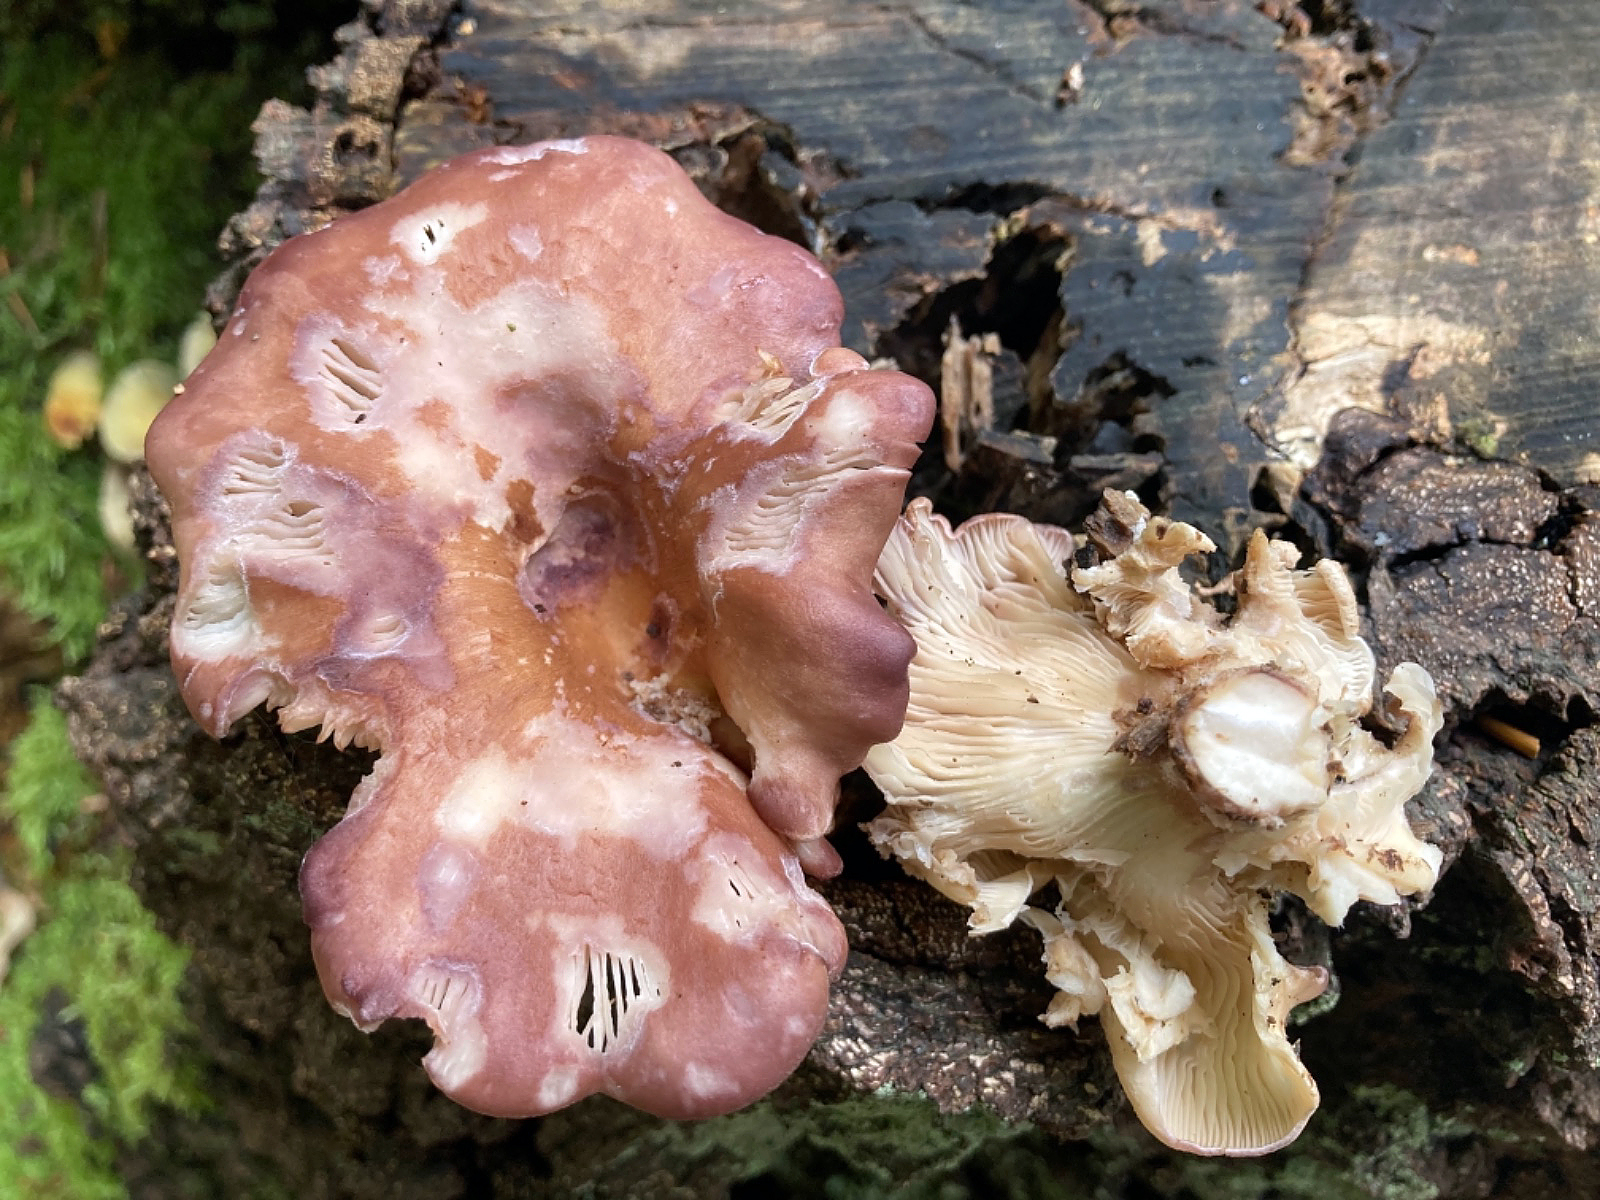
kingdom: Fungi
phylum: Basidiomycota
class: Agaricomycetes
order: Polyporales
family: Panaceae
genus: Panus
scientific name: Panus conchatus
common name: filtstokket læderhat
